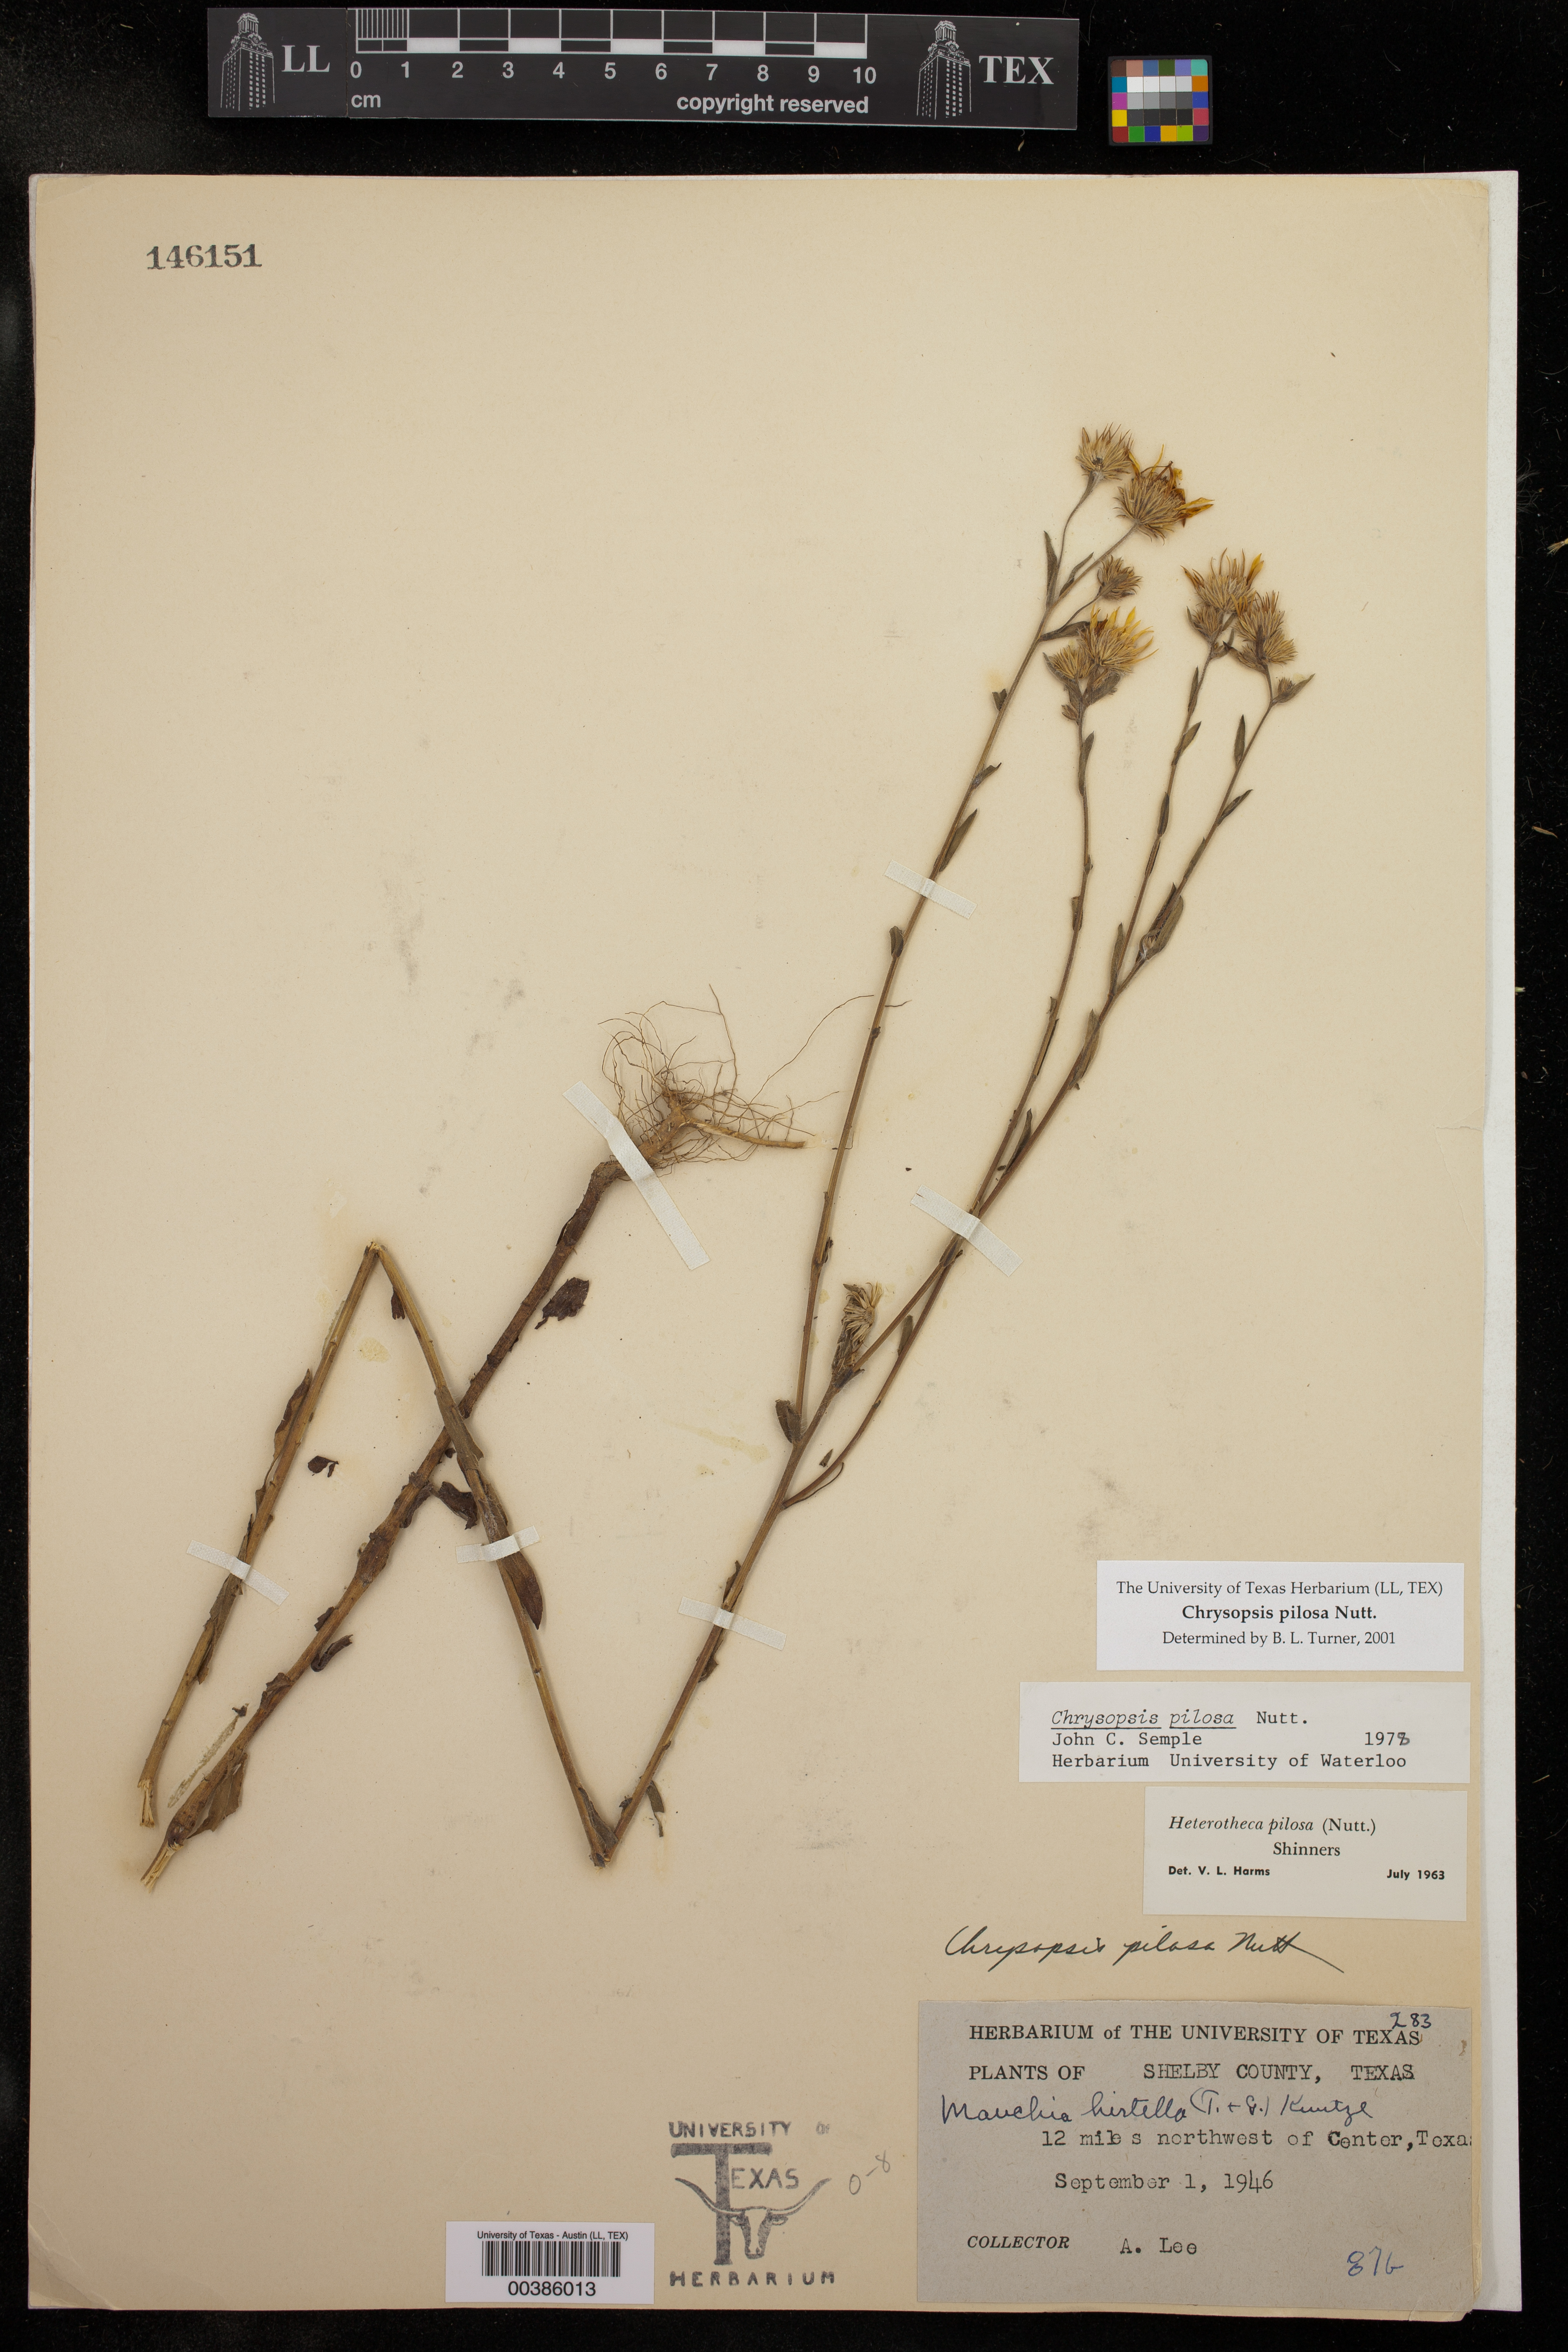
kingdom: Plantae
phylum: Tracheophyta
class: Magnoliopsida
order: Asterales
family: Asteraceae
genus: Chrysopsis
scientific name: Chrysopsis gossypina
